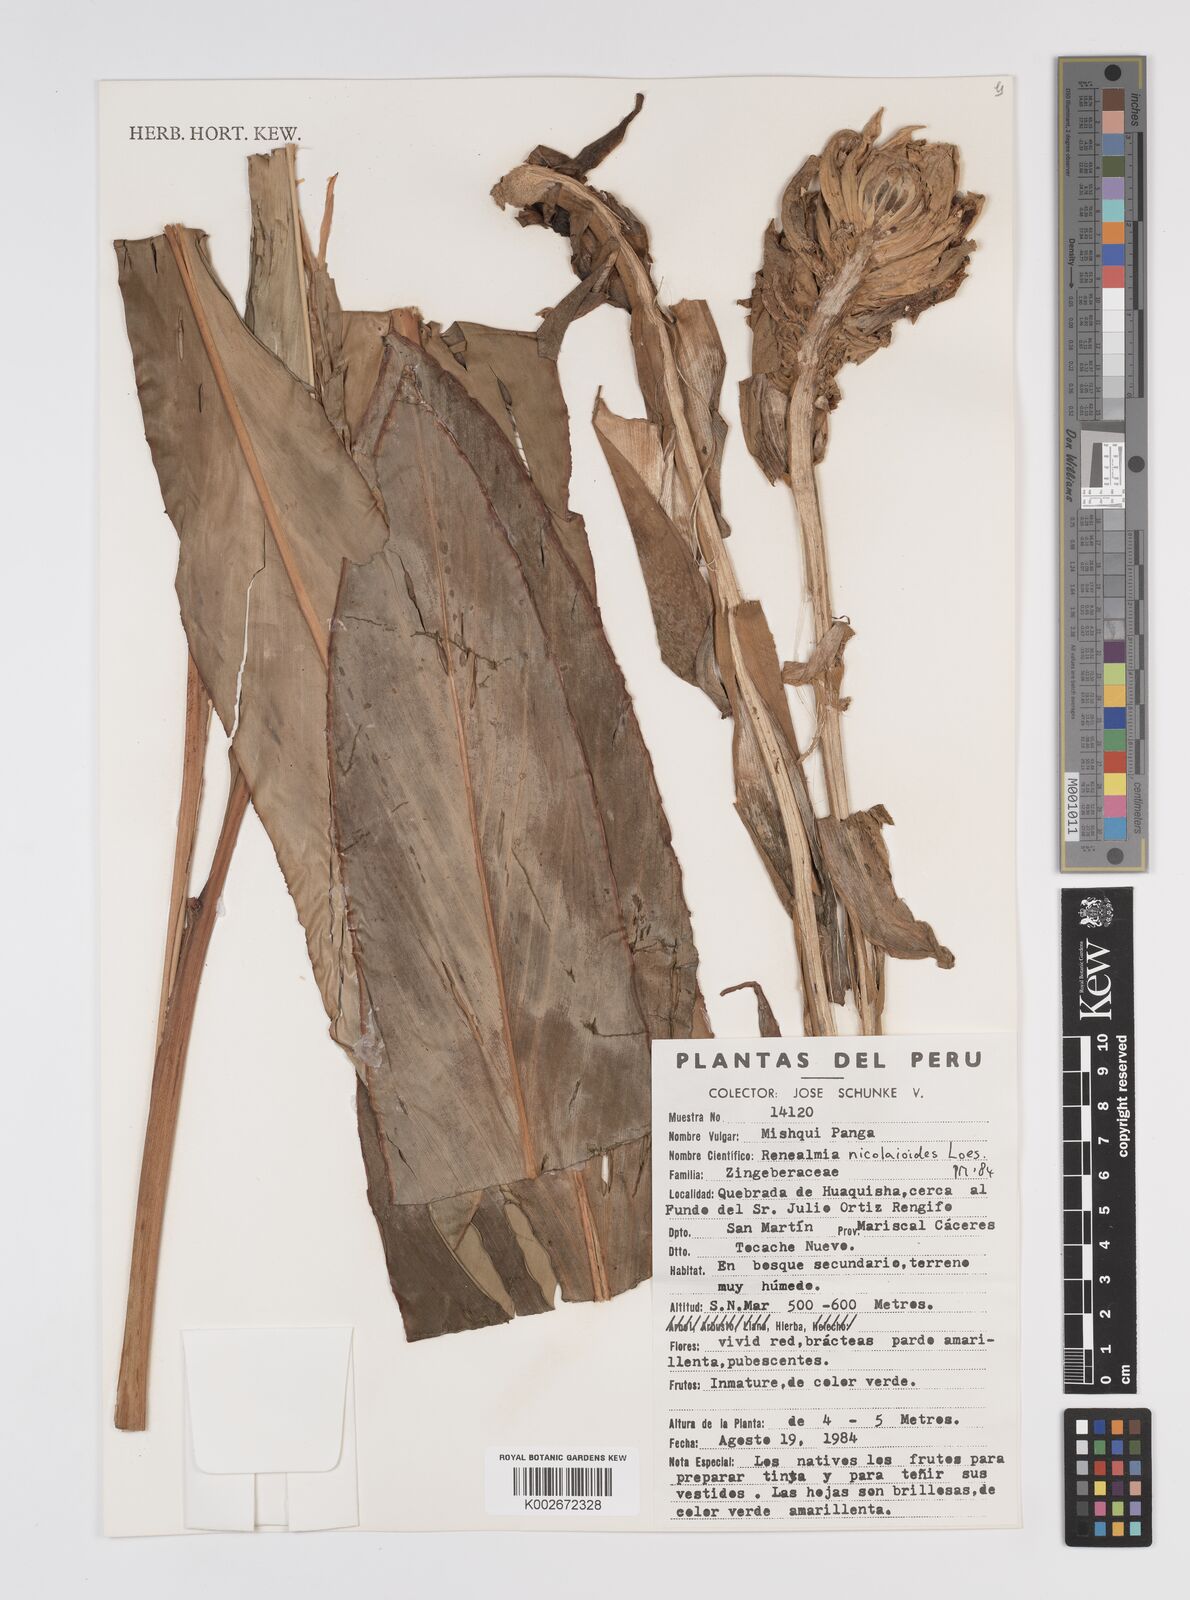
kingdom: Plantae
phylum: Tracheophyta
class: Liliopsida
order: Zingiberales
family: Zingiberaceae
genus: Renealmia
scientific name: Renealmia nicolaioides
